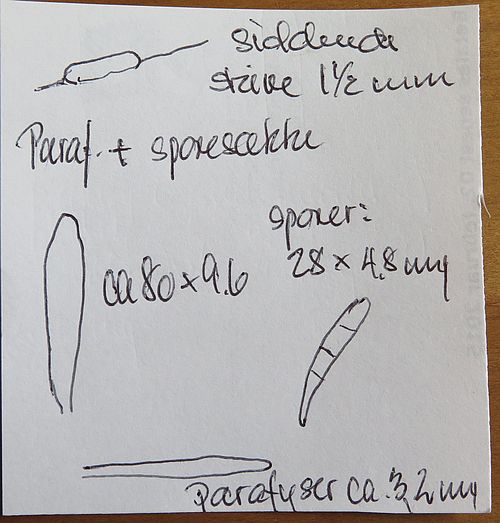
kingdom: Fungi
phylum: Ascomycota
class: Leotiomycetes
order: Helotiales
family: Mollisiaceae
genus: Belonopsis
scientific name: Belonopsis graminea
